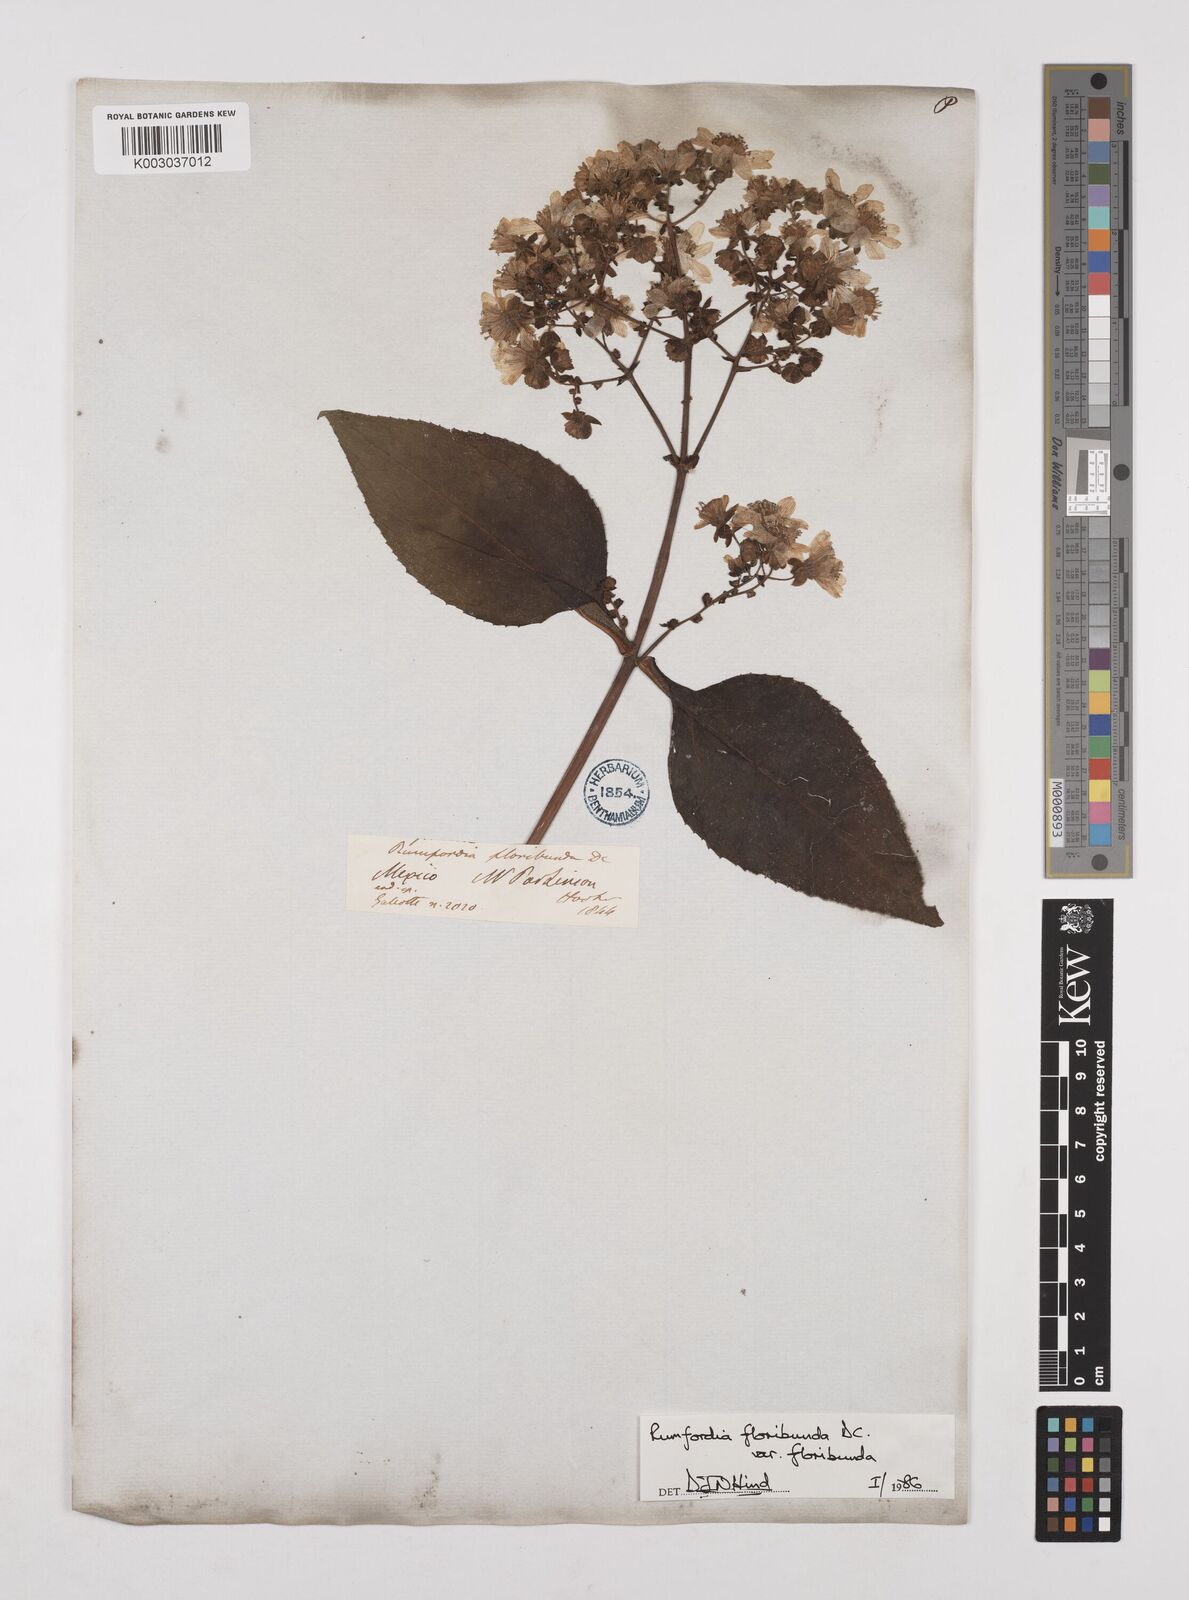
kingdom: Plantae
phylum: Tracheophyta
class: Magnoliopsida
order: Asterales
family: Asteraceae
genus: Rumfordia
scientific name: Rumfordia floribunda
